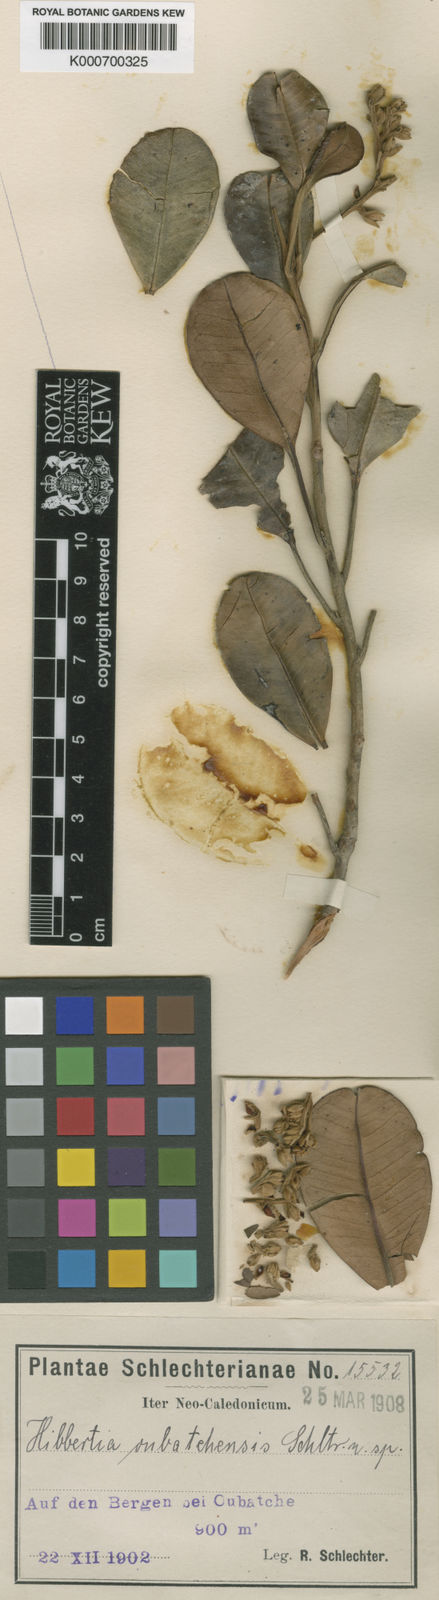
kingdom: Plantae
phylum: Tracheophyta
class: Magnoliopsida
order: Dilleniales
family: Dilleniaceae
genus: Hibbertia
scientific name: Hibbertia pancheri
